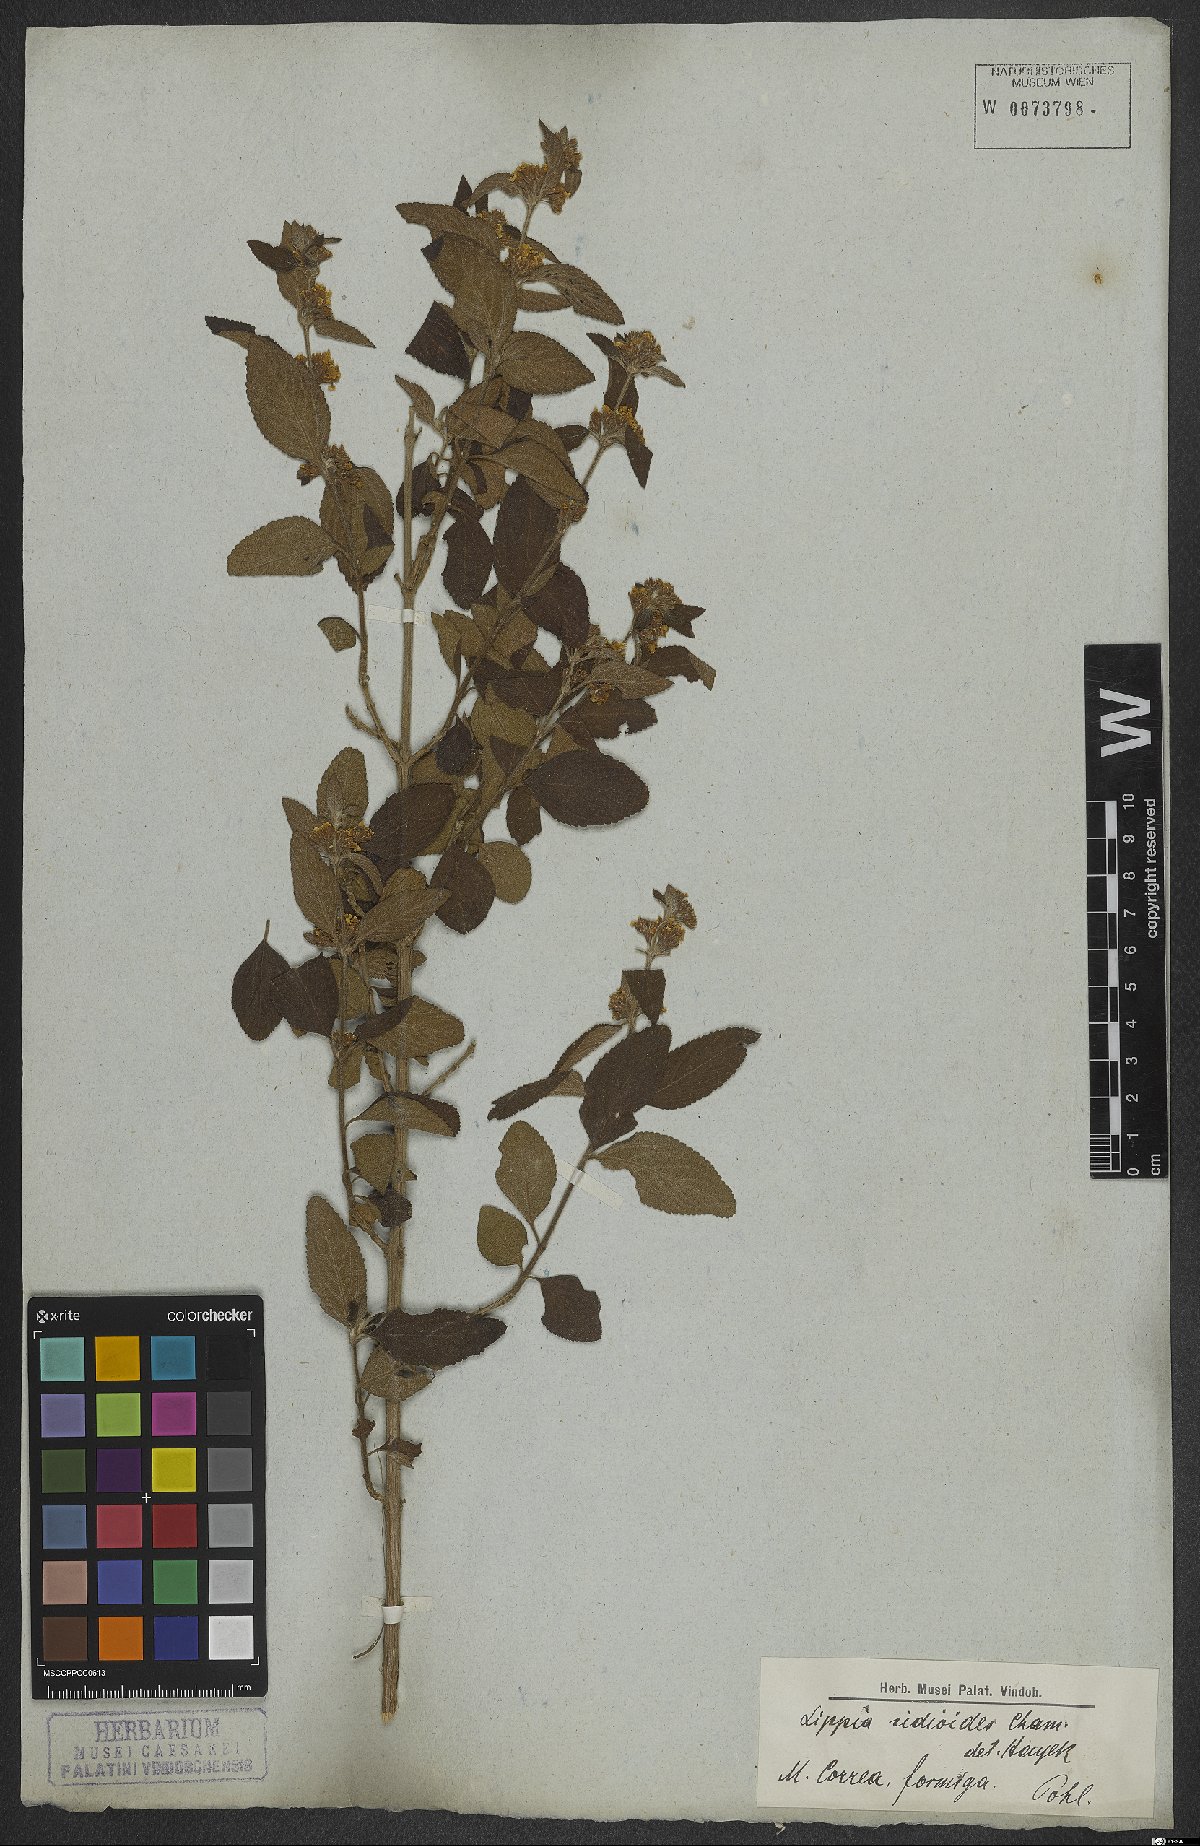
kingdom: Plantae
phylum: Tracheophyta
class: Magnoliopsida
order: Lamiales
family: Verbenaceae
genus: Lippia
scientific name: Lippia origanoides
